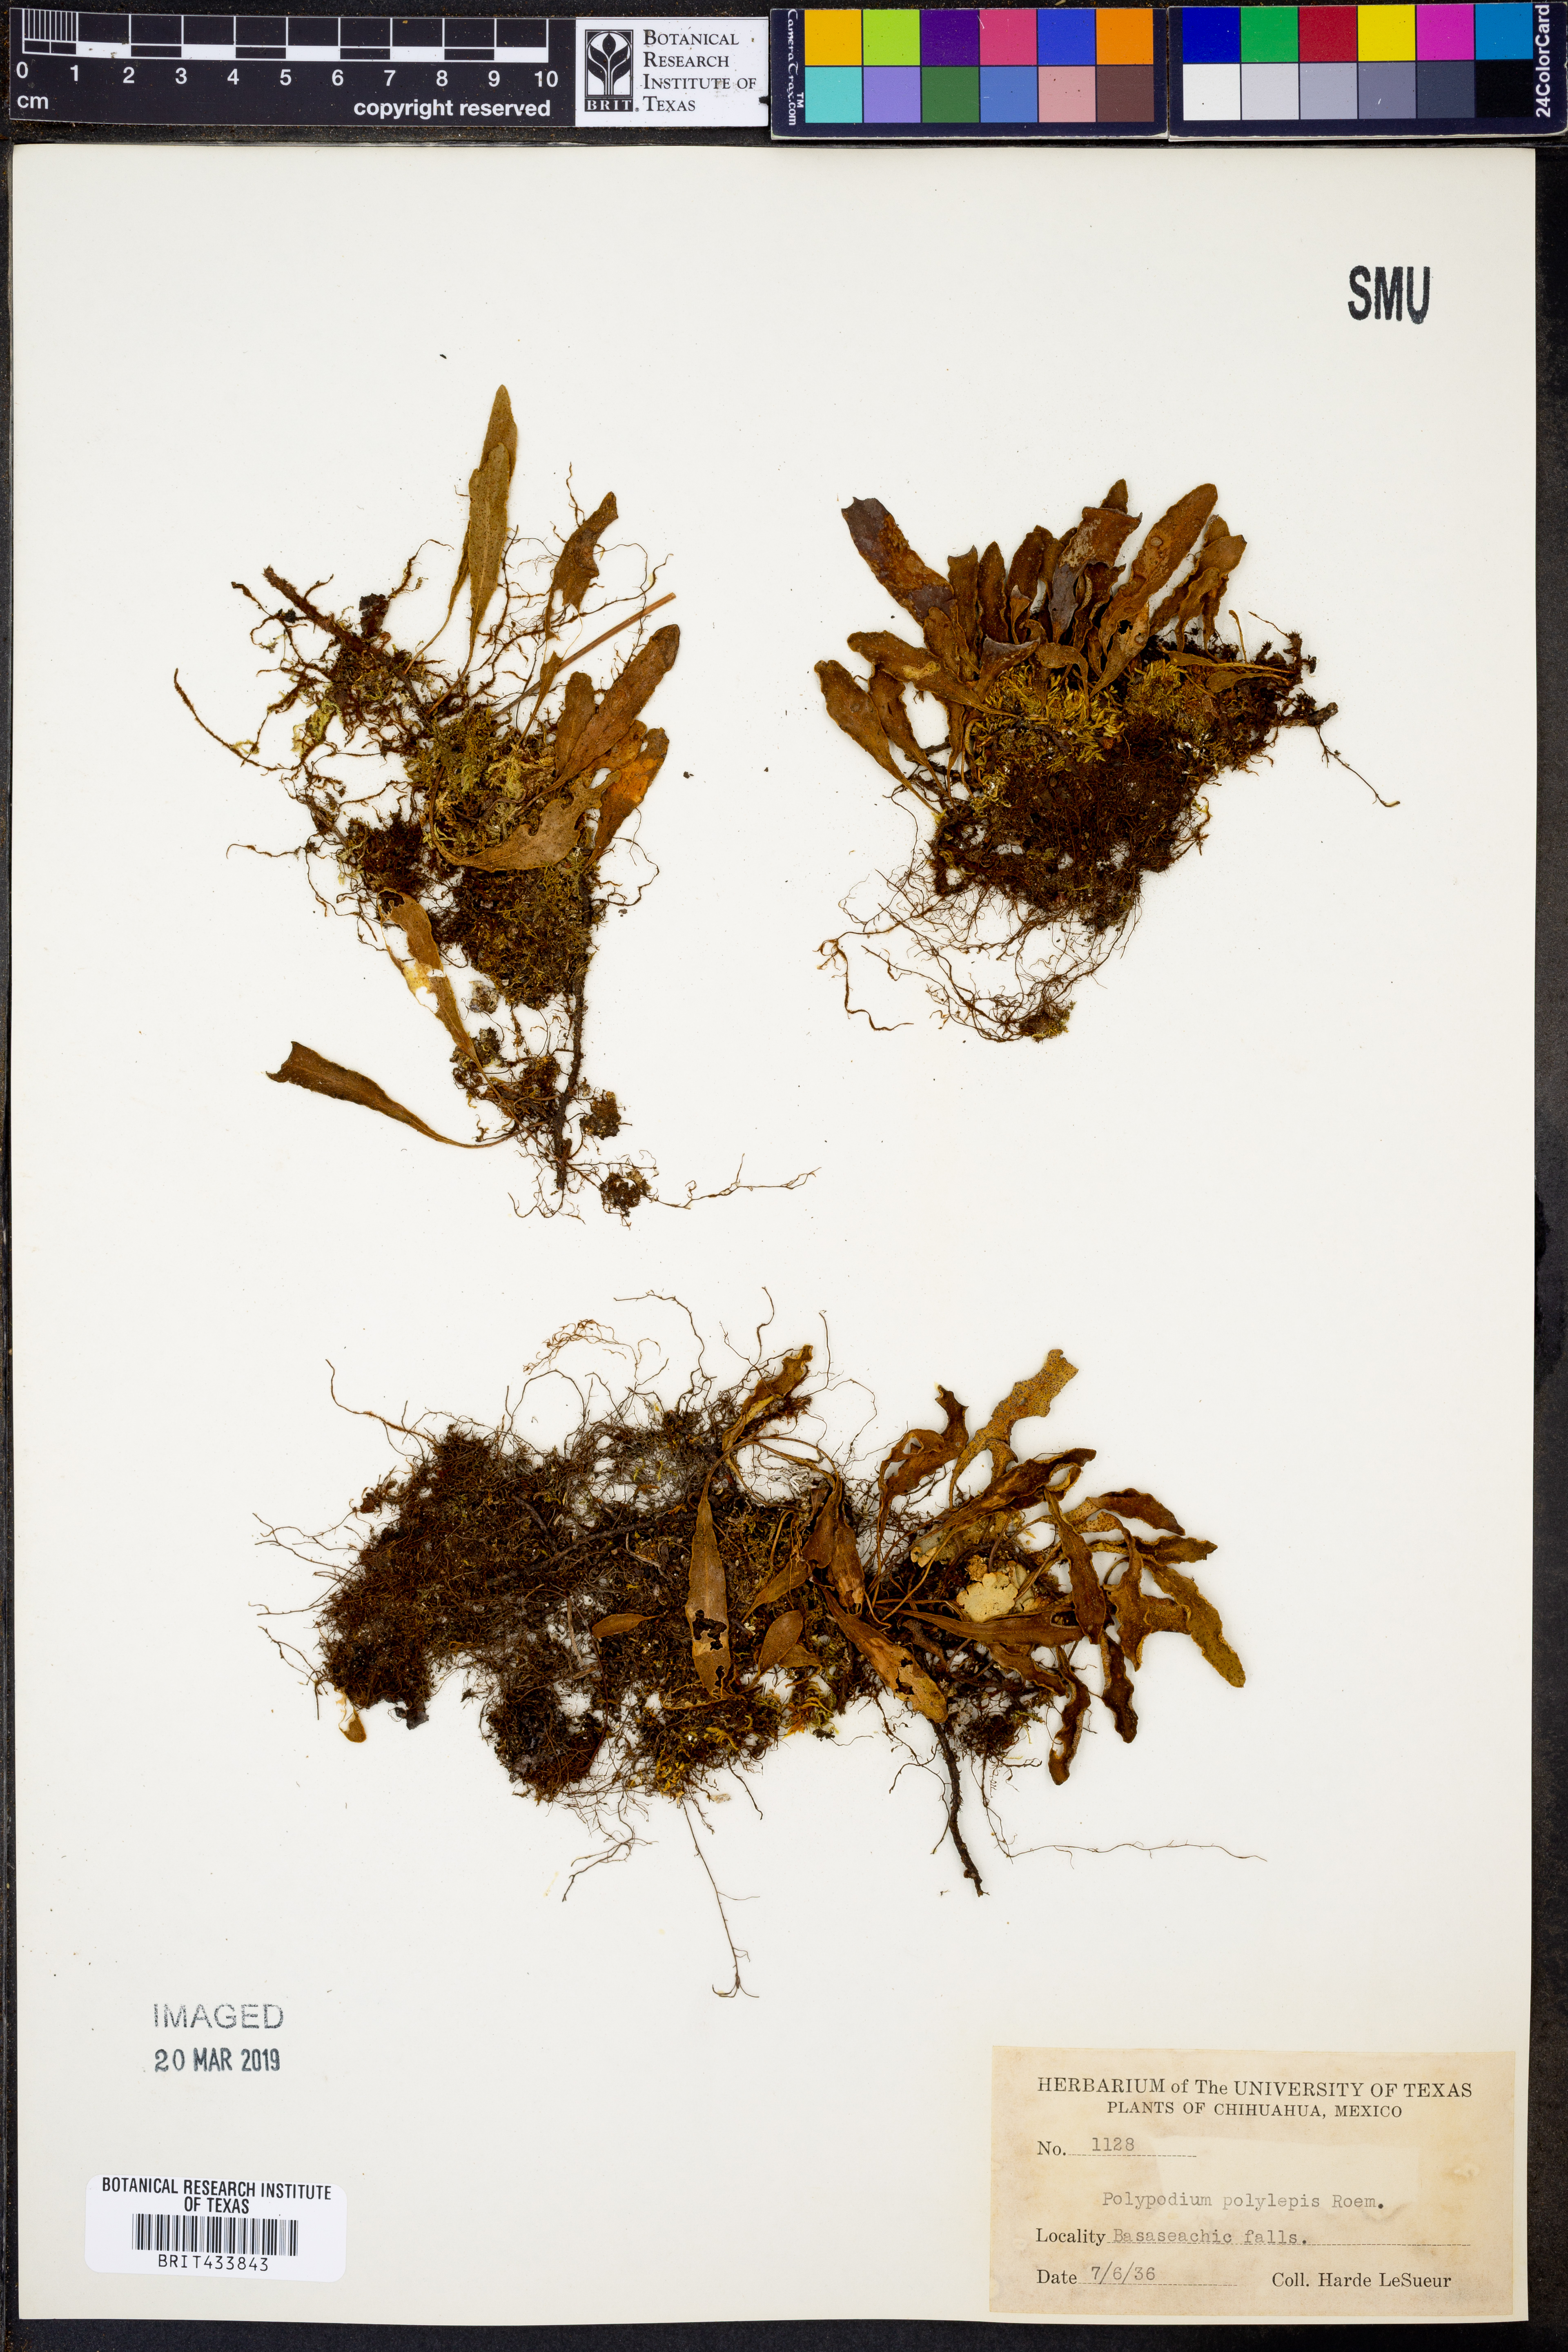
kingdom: Plantae
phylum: Tracheophyta
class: Polypodiopsida
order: Polypodiales
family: Polypodiaceae
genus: Pleopeltis
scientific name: Pleopeltis polylepis
